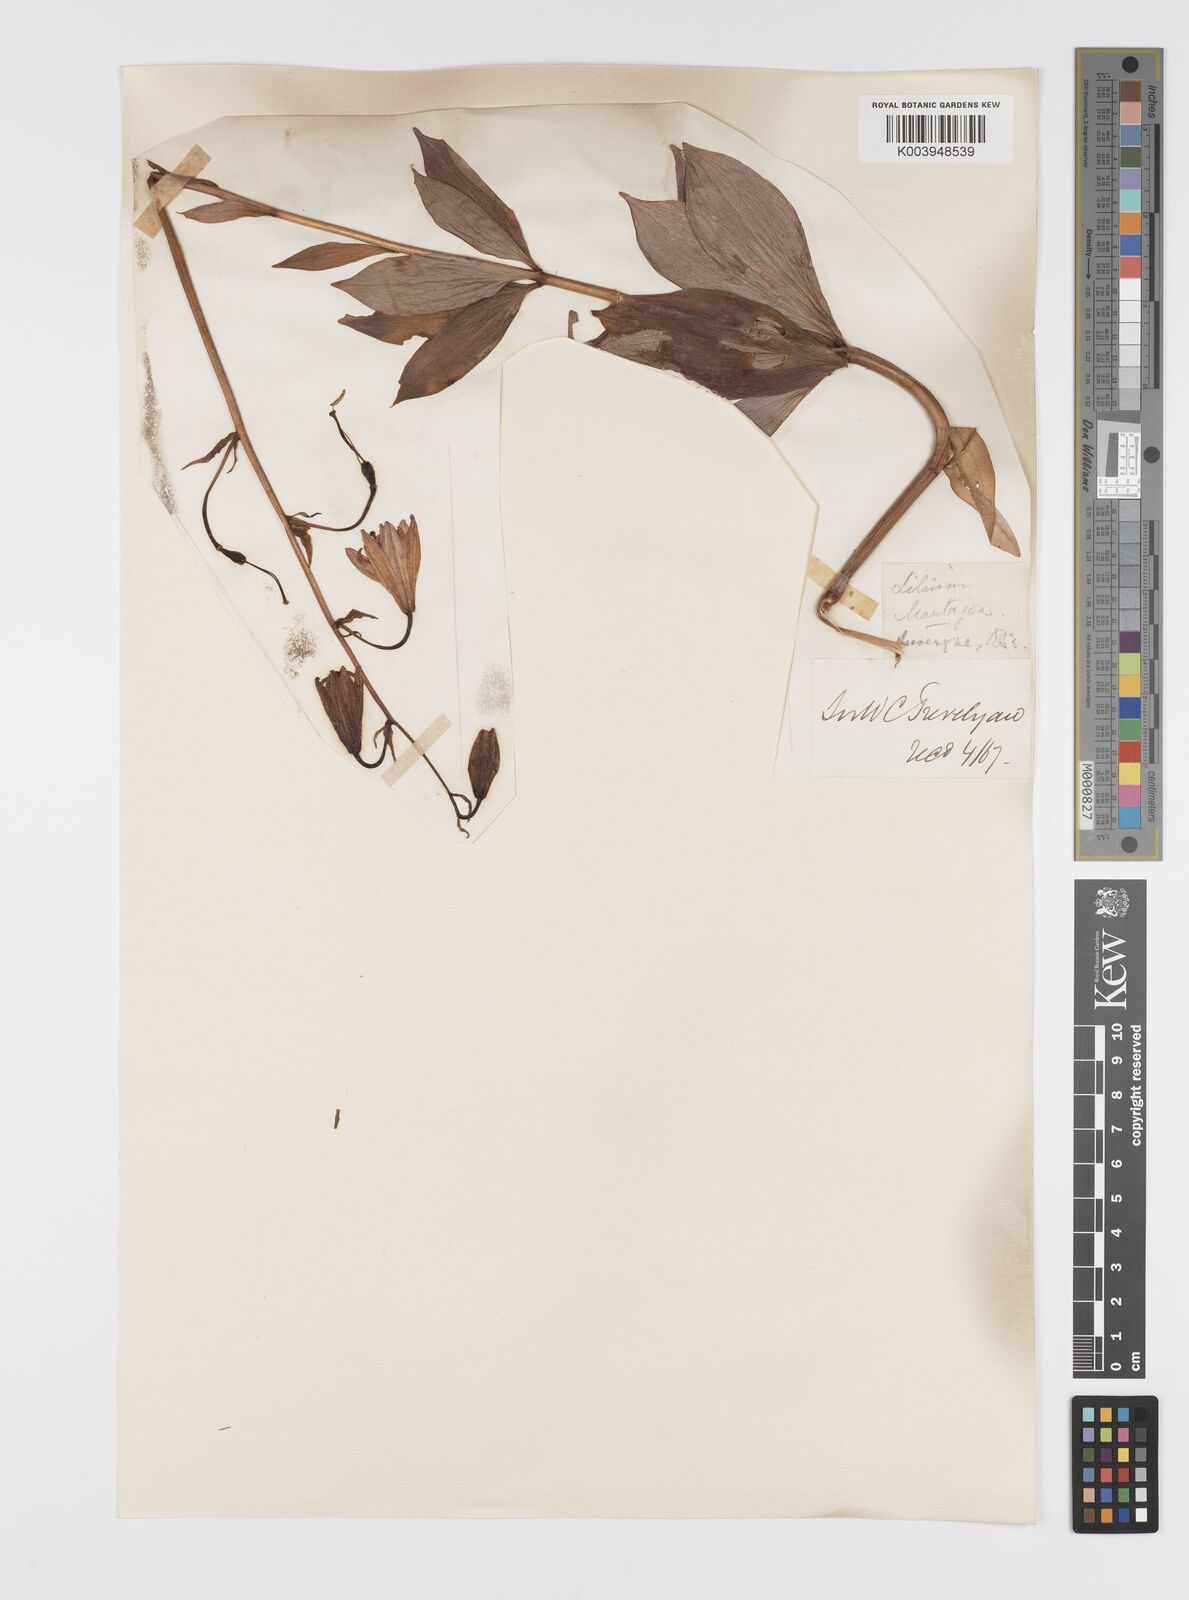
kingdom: Plantae
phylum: Tracheophyta
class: Liliopsida
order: Liliales
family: Liliaceae
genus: Lilium
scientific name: Lilium martagon
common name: Martagon lily
